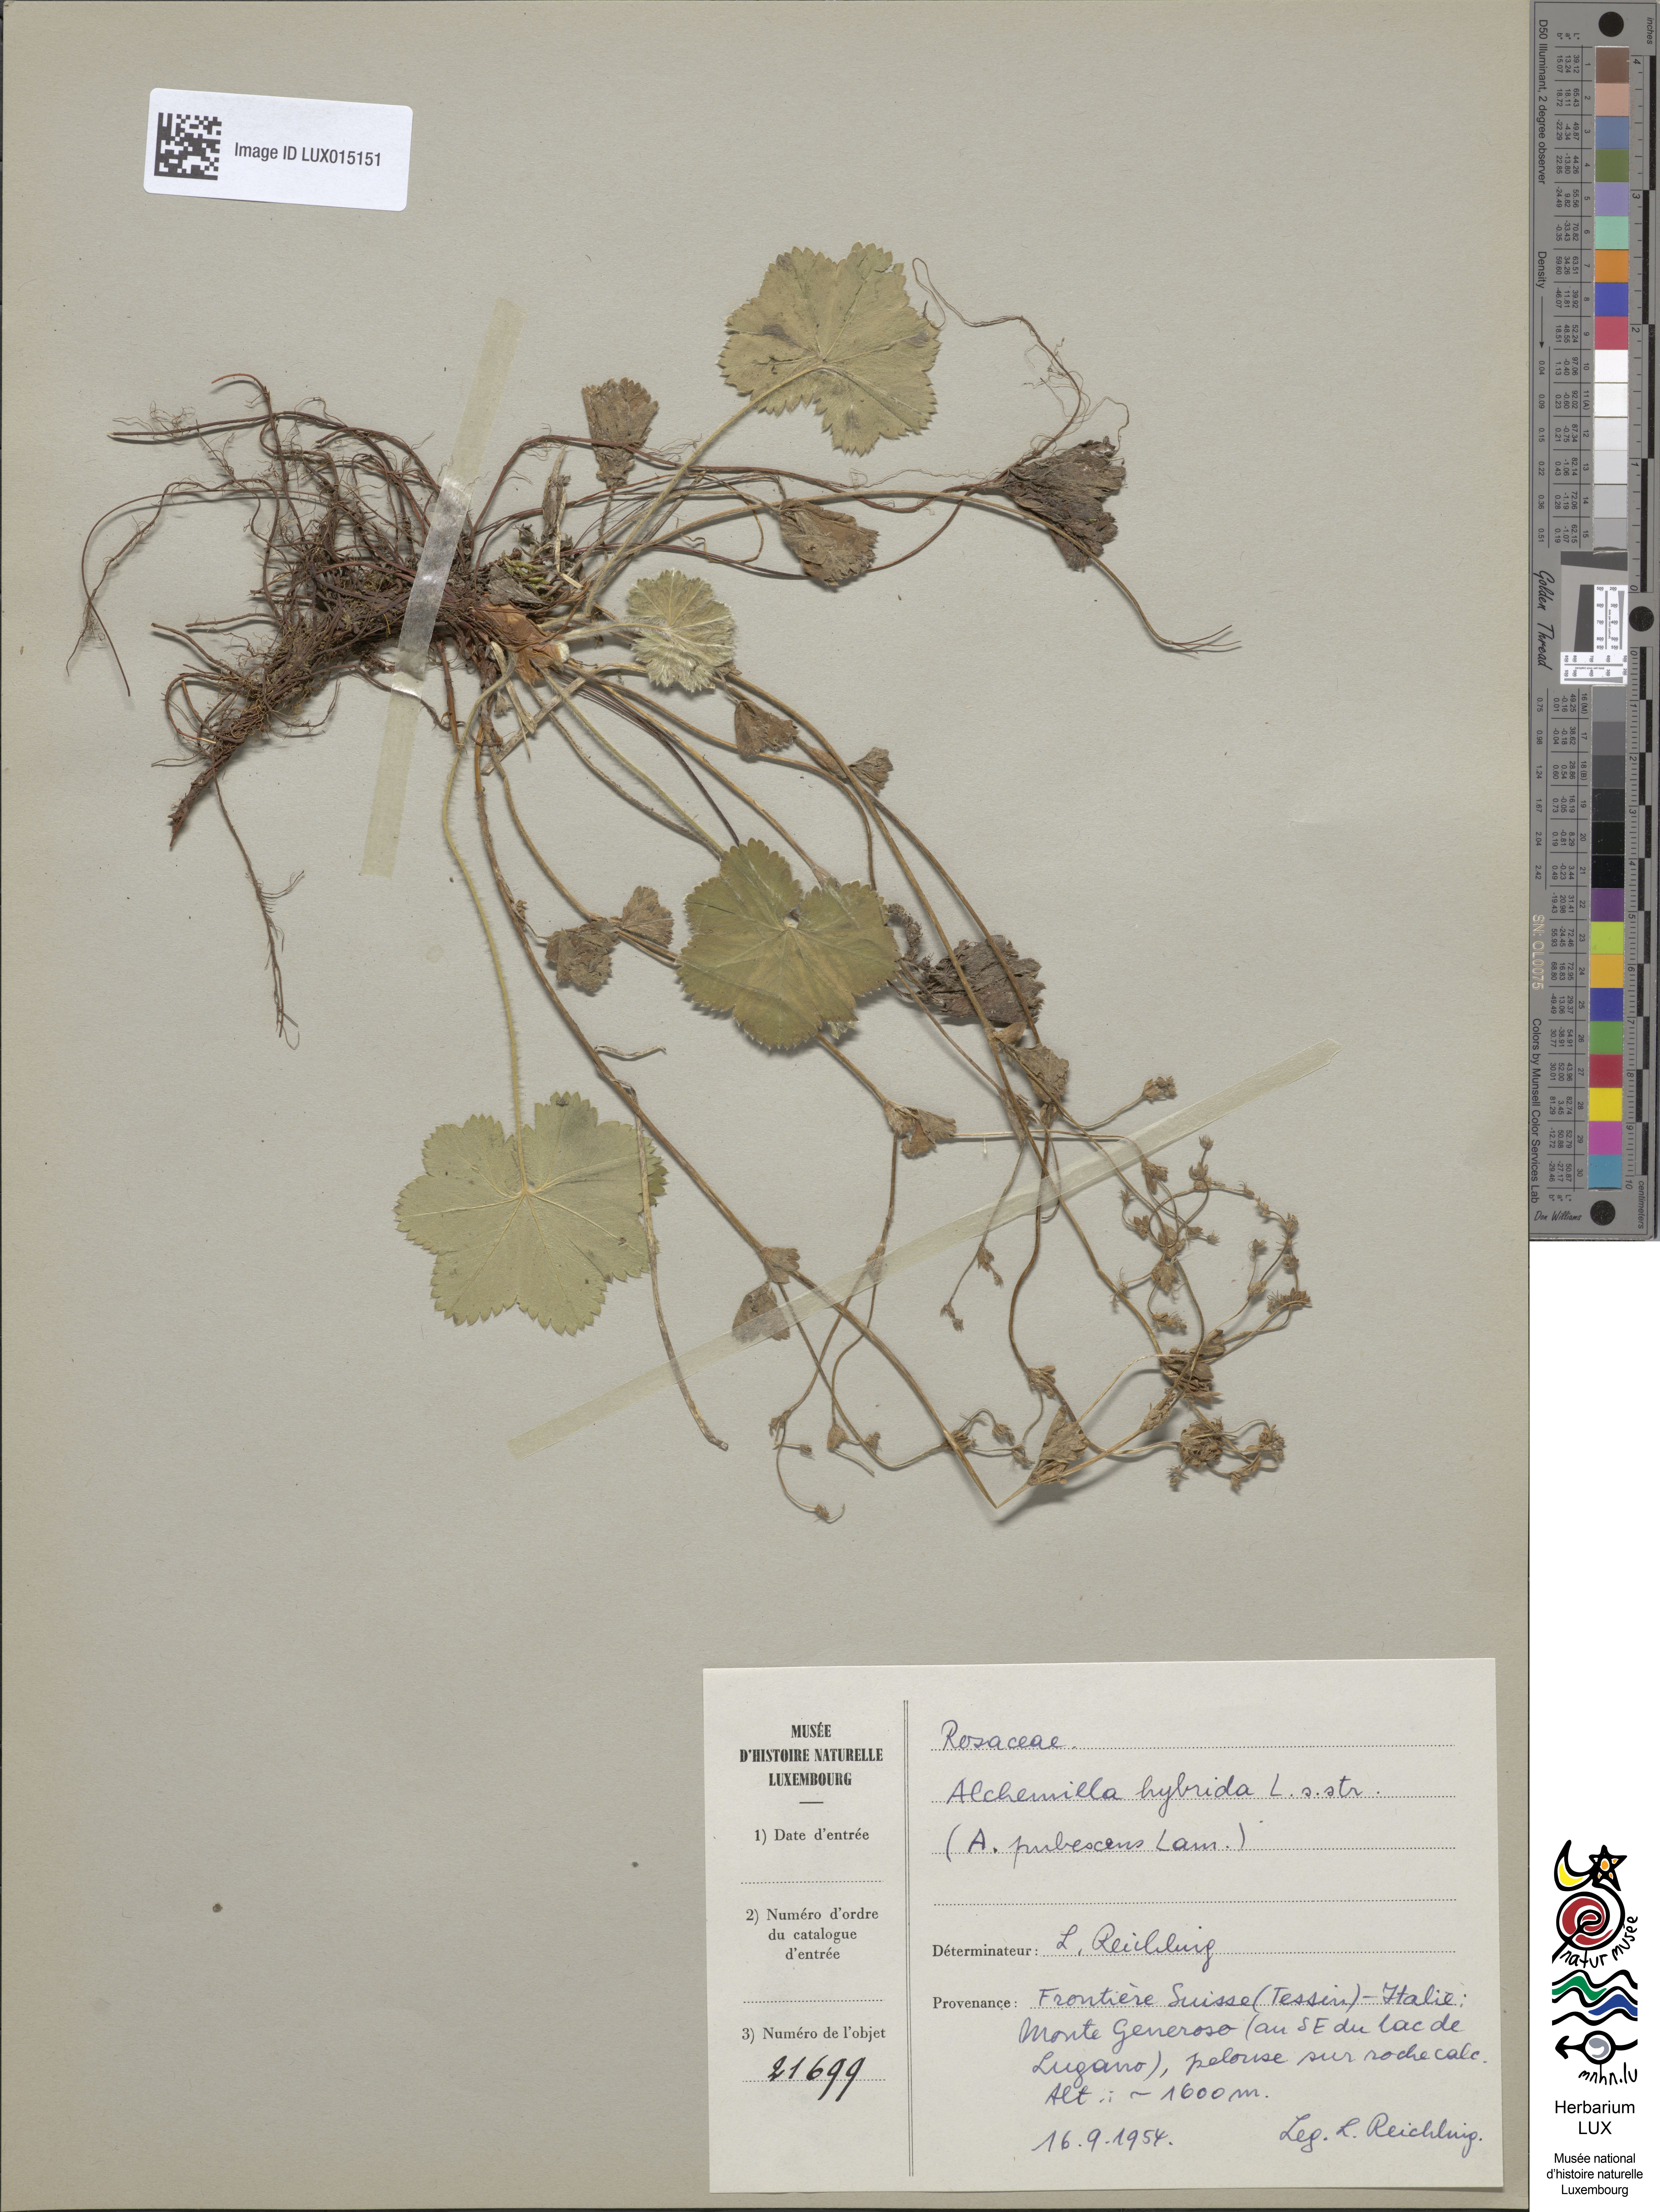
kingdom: Plantae
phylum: Tracheophyta
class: Magnoliopsida
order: Rosales
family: Rosaceae
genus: Alchemilla
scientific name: Alchemilla hybrida
